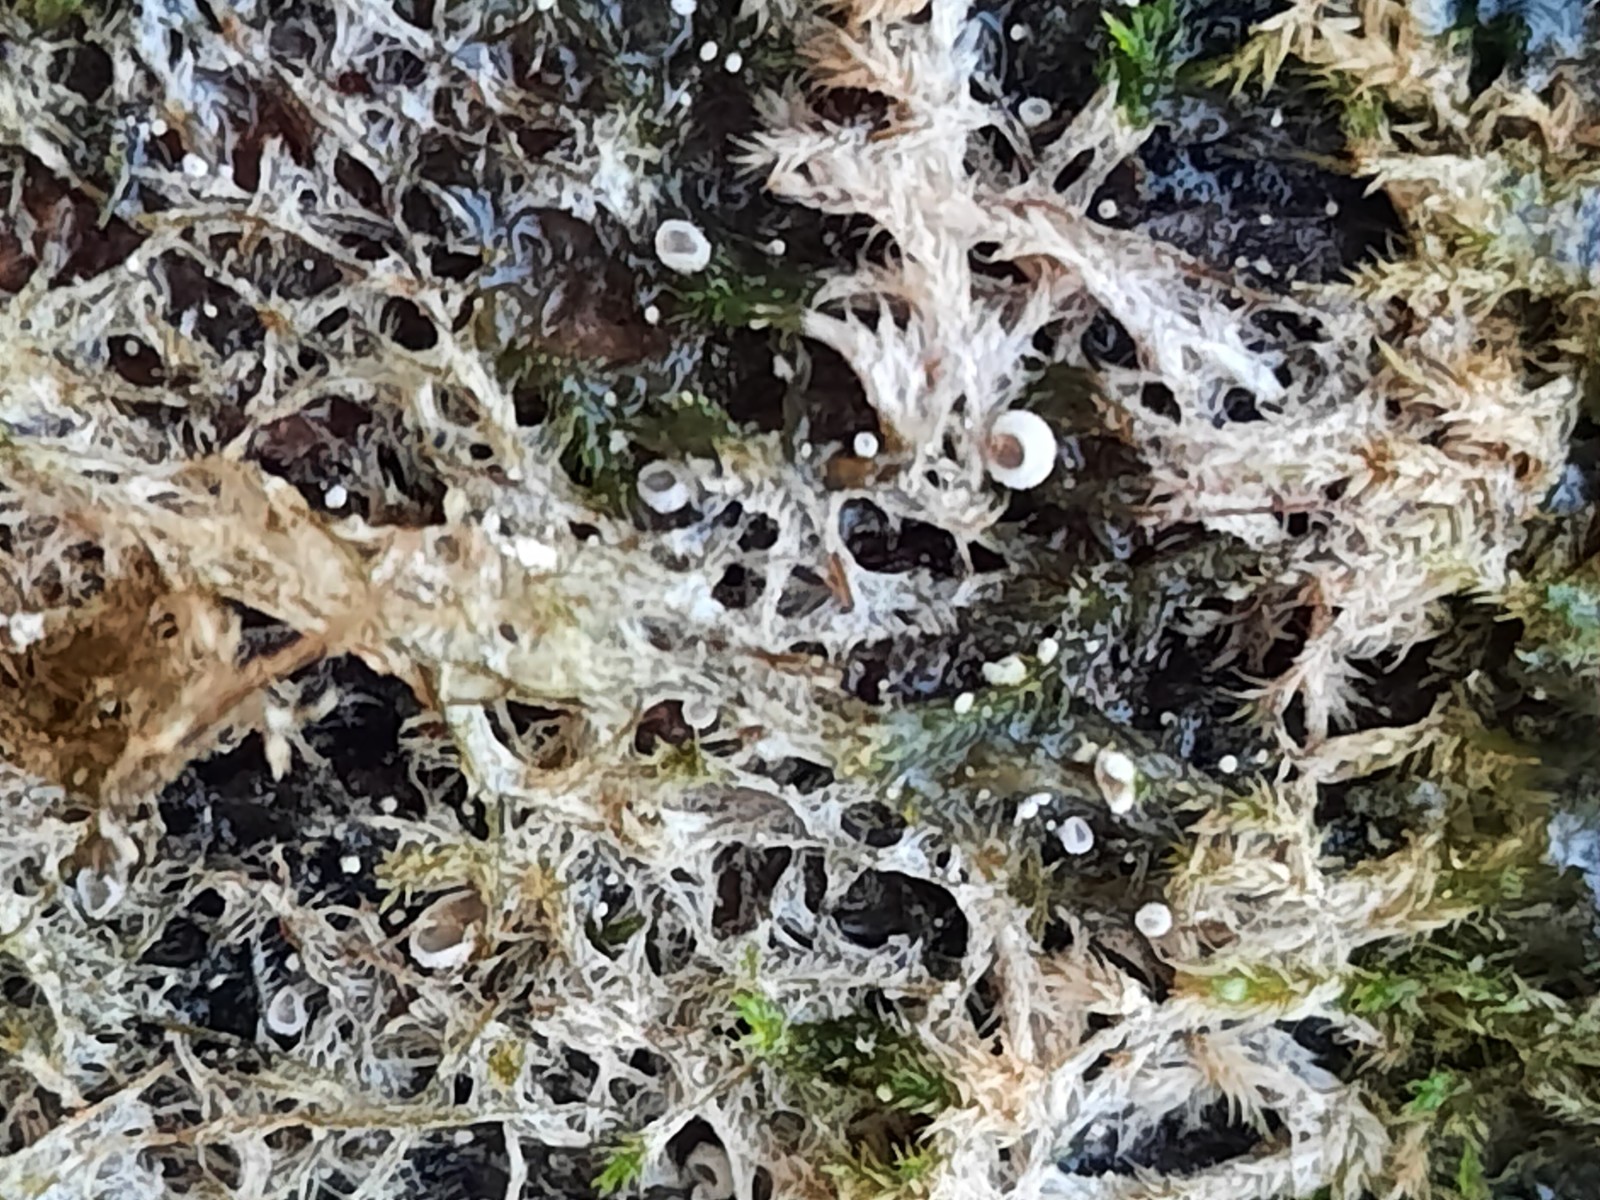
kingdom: Fungi
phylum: Basidiomycota
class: Agaricomycetes
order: Agaricales
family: Chromocyphellaceae
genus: Chromocyphella
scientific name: Chromocyphella muscicola
